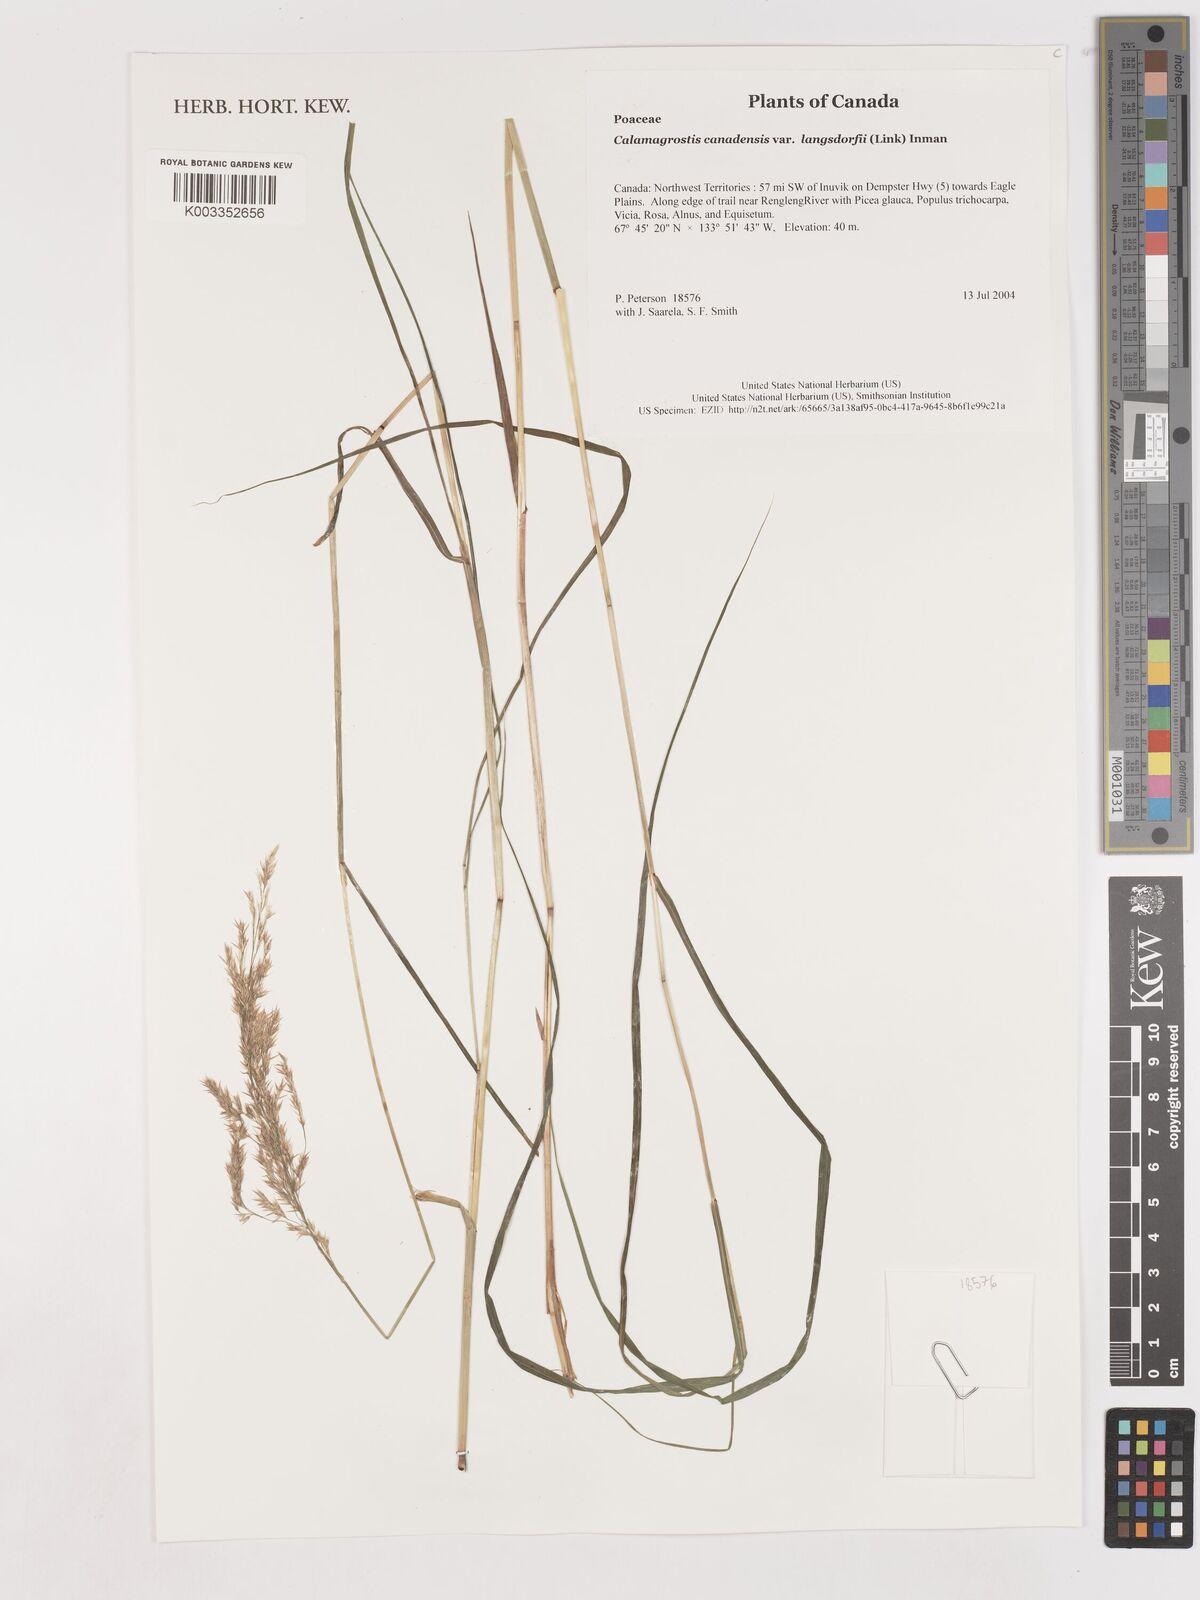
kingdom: Plantae
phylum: Tracheophyta
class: Liliopsida
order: Poales
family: Poaceae
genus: Calamagrostis
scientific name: Calamagrostis canadensis
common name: Canada bluejoint
